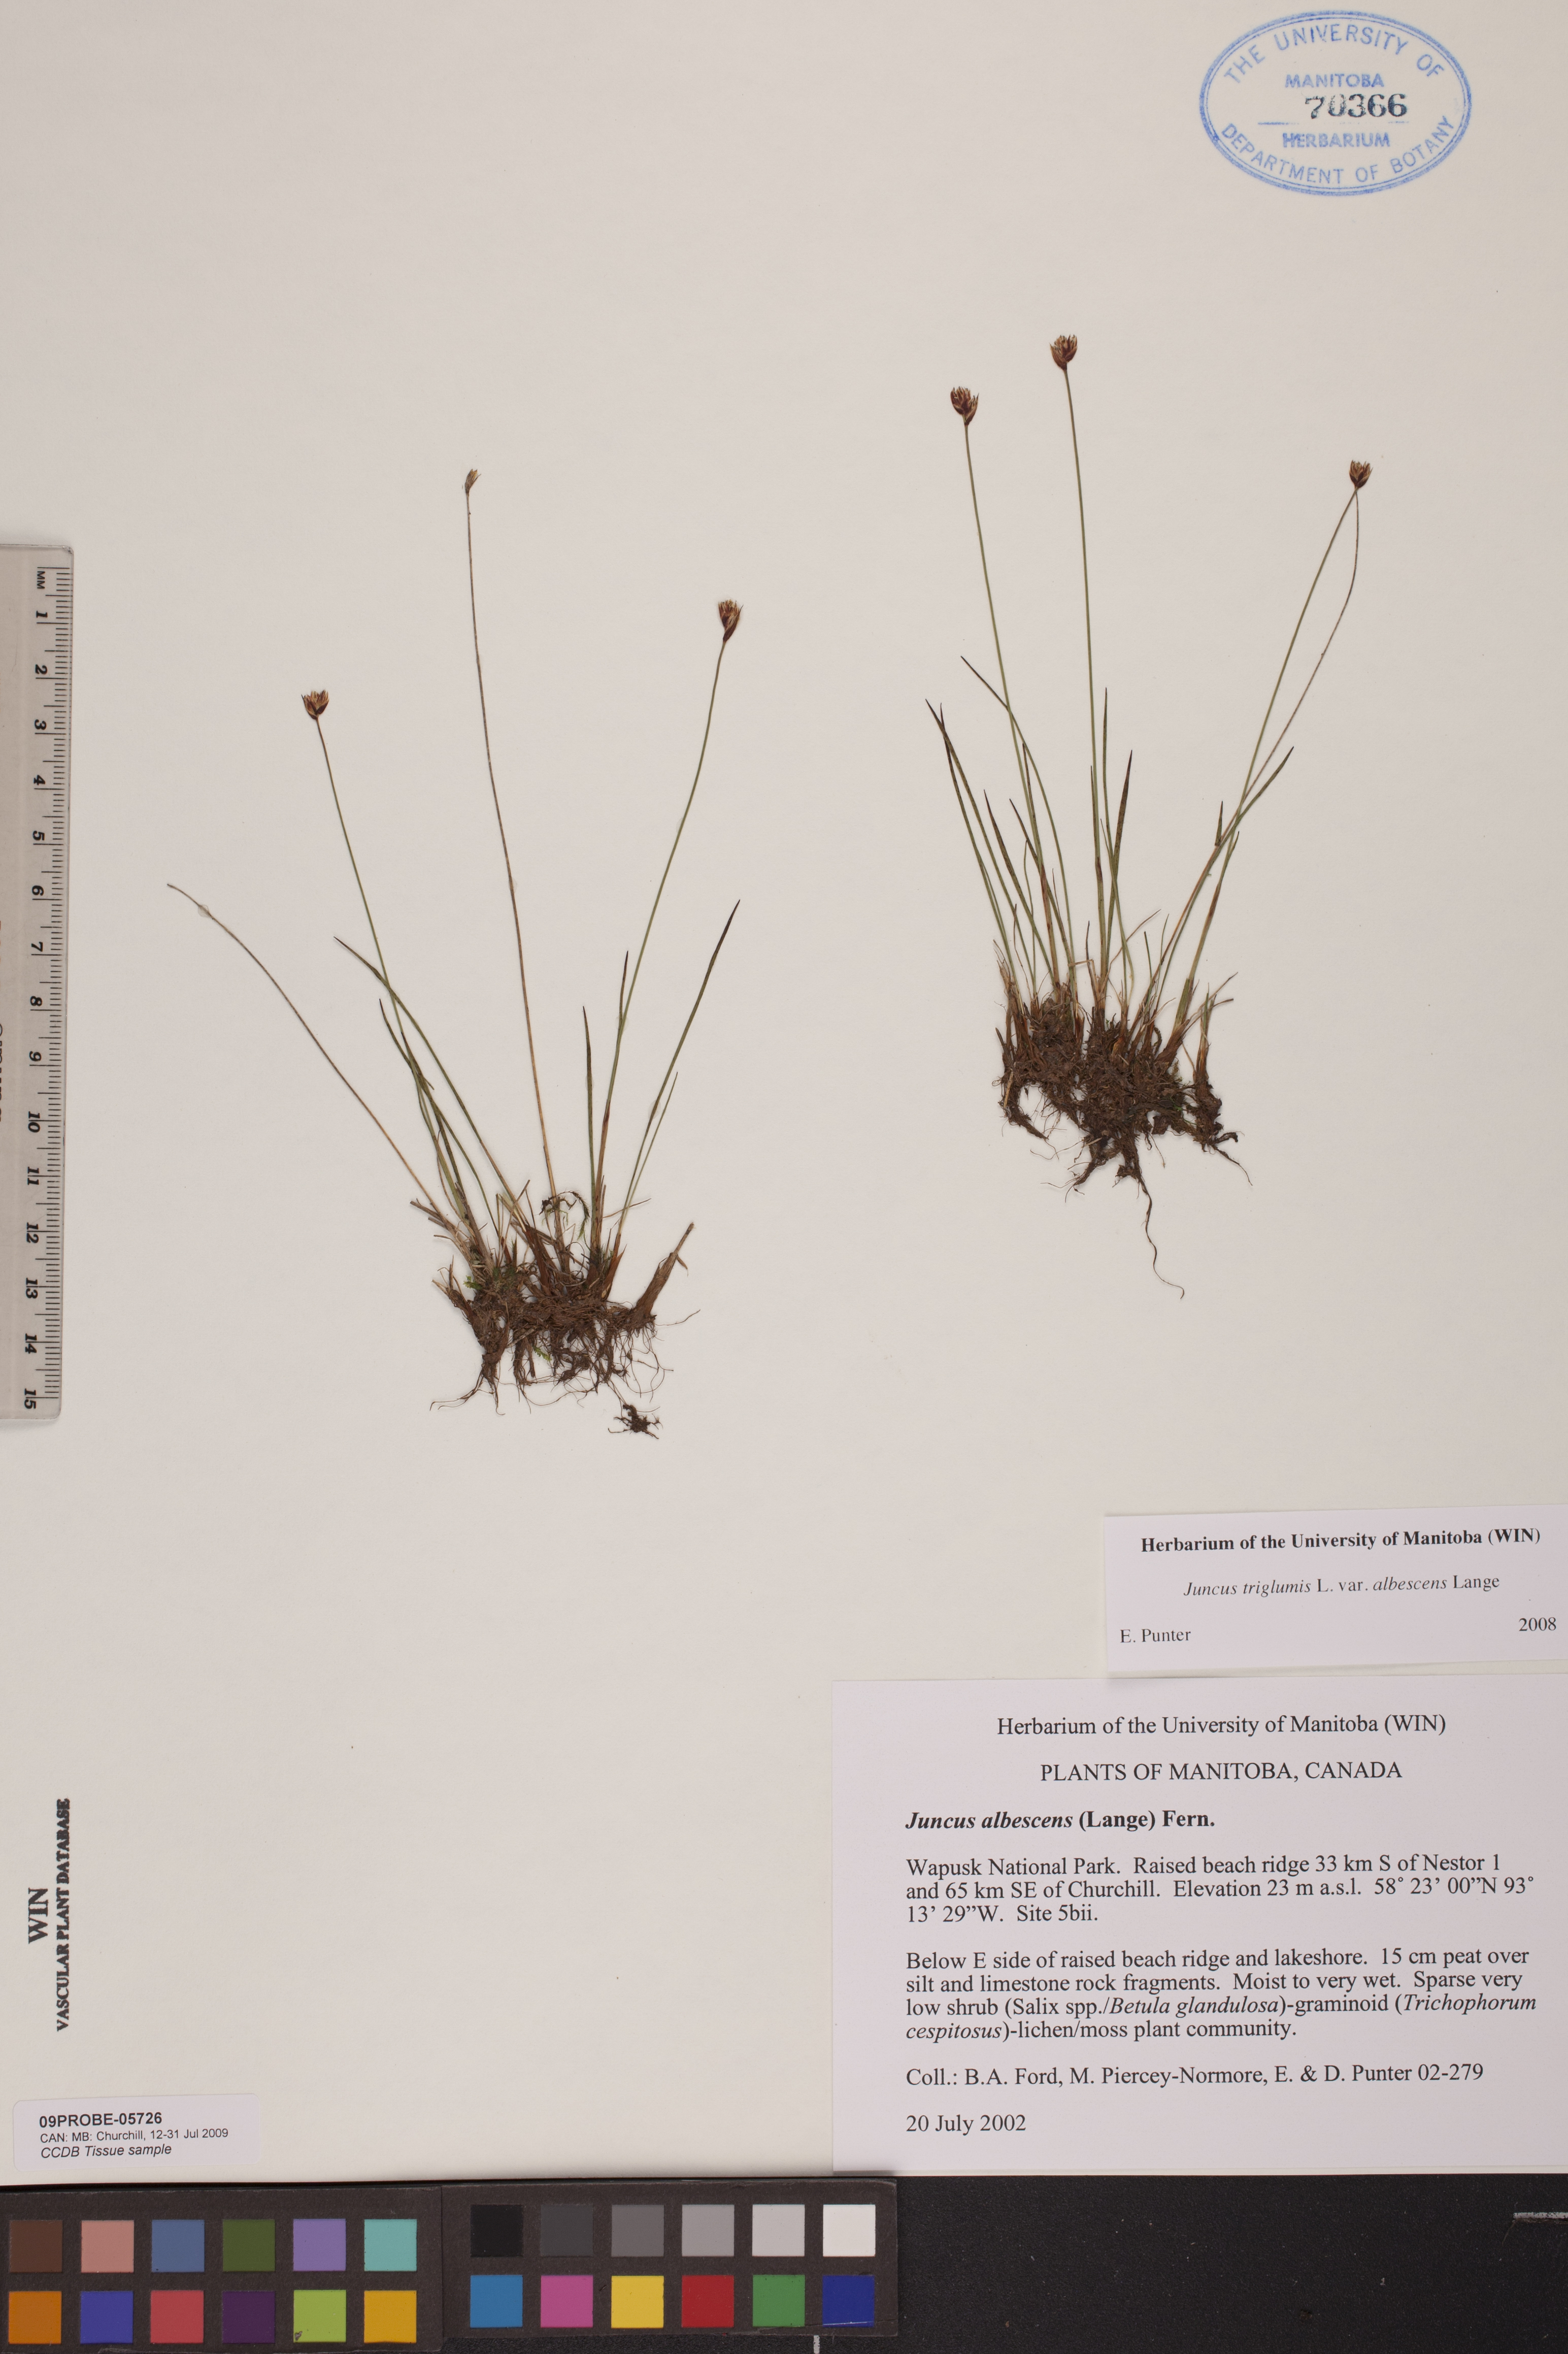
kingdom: Plantae
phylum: Tracheophyta
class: Liliopsida
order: Poales
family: Juncaceae
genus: Juncus
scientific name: Juncus albescens
